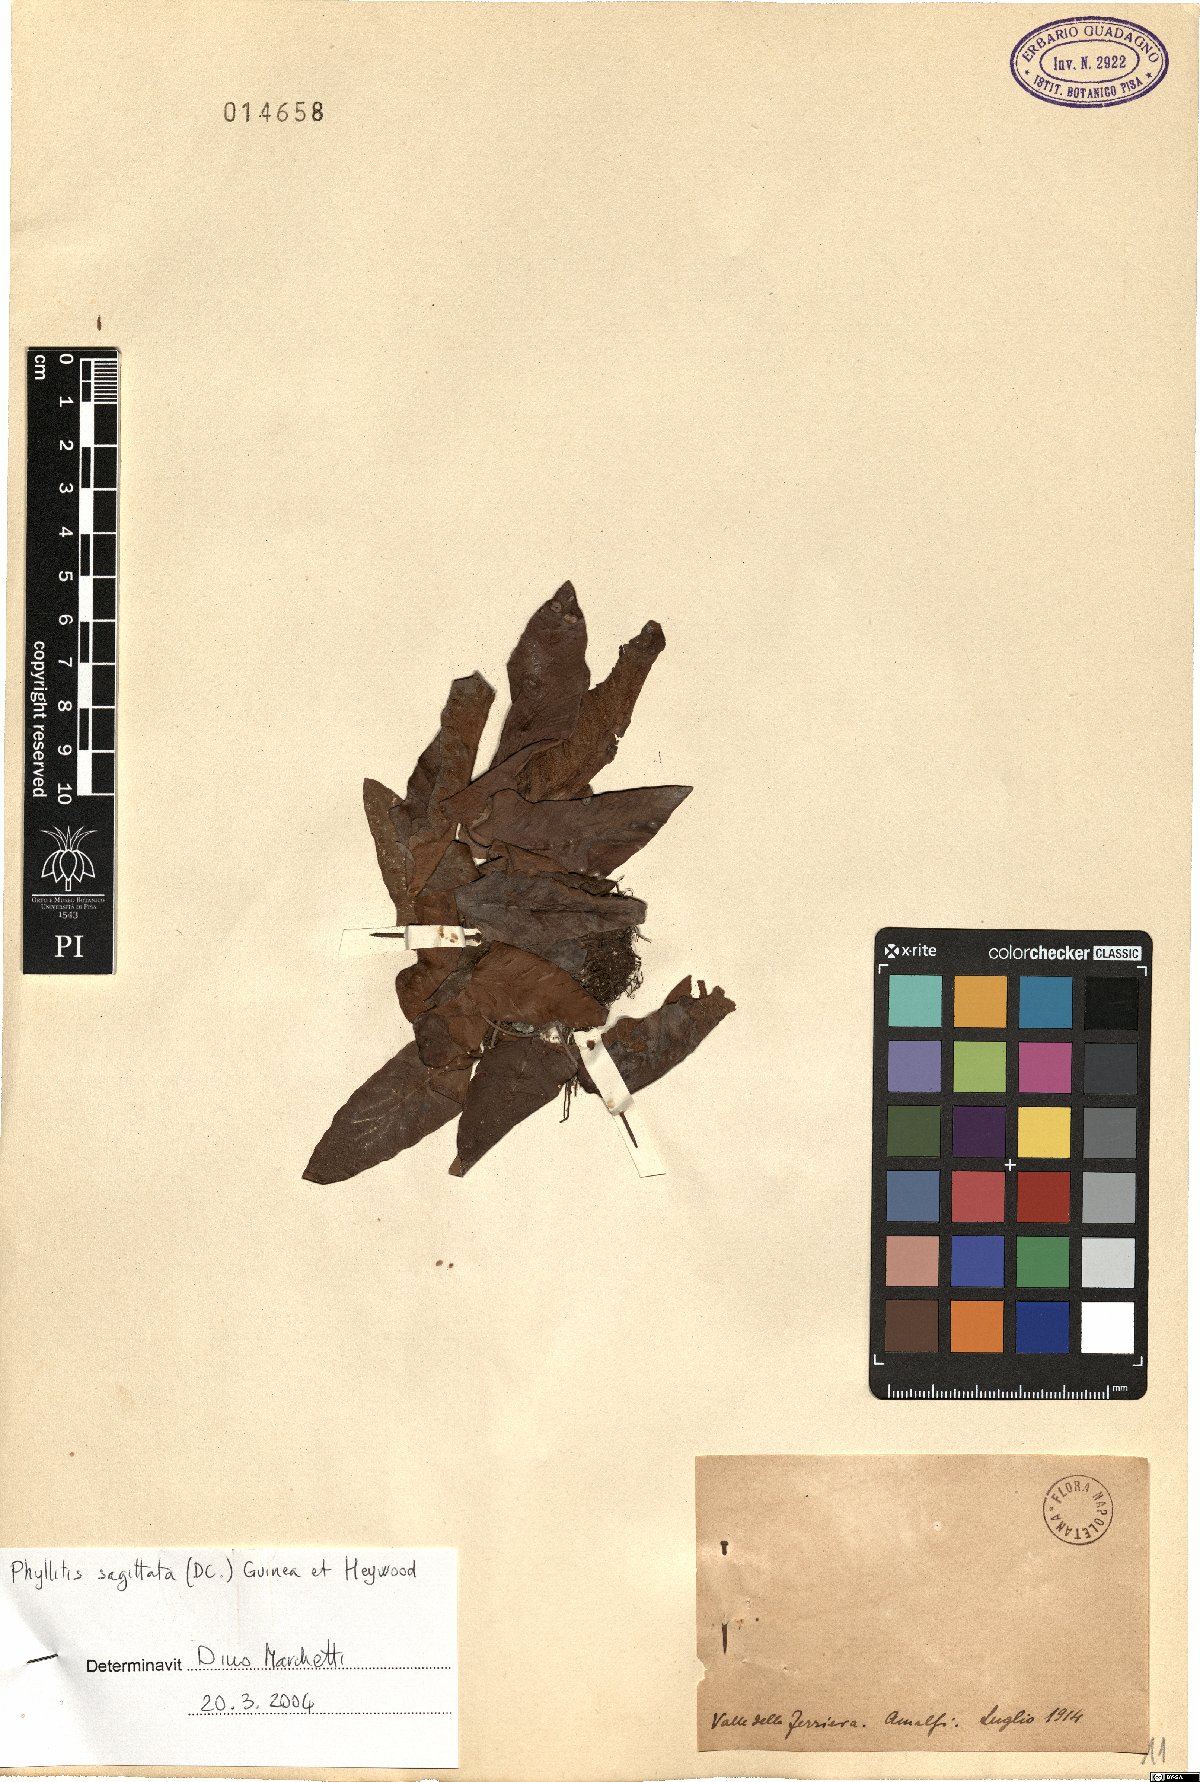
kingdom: Plantae
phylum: Tracheophyta
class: Polypodiopsida
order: Polypodiales
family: Aspleniaceae
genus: Asplenium
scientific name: Asplenium sagittatum
